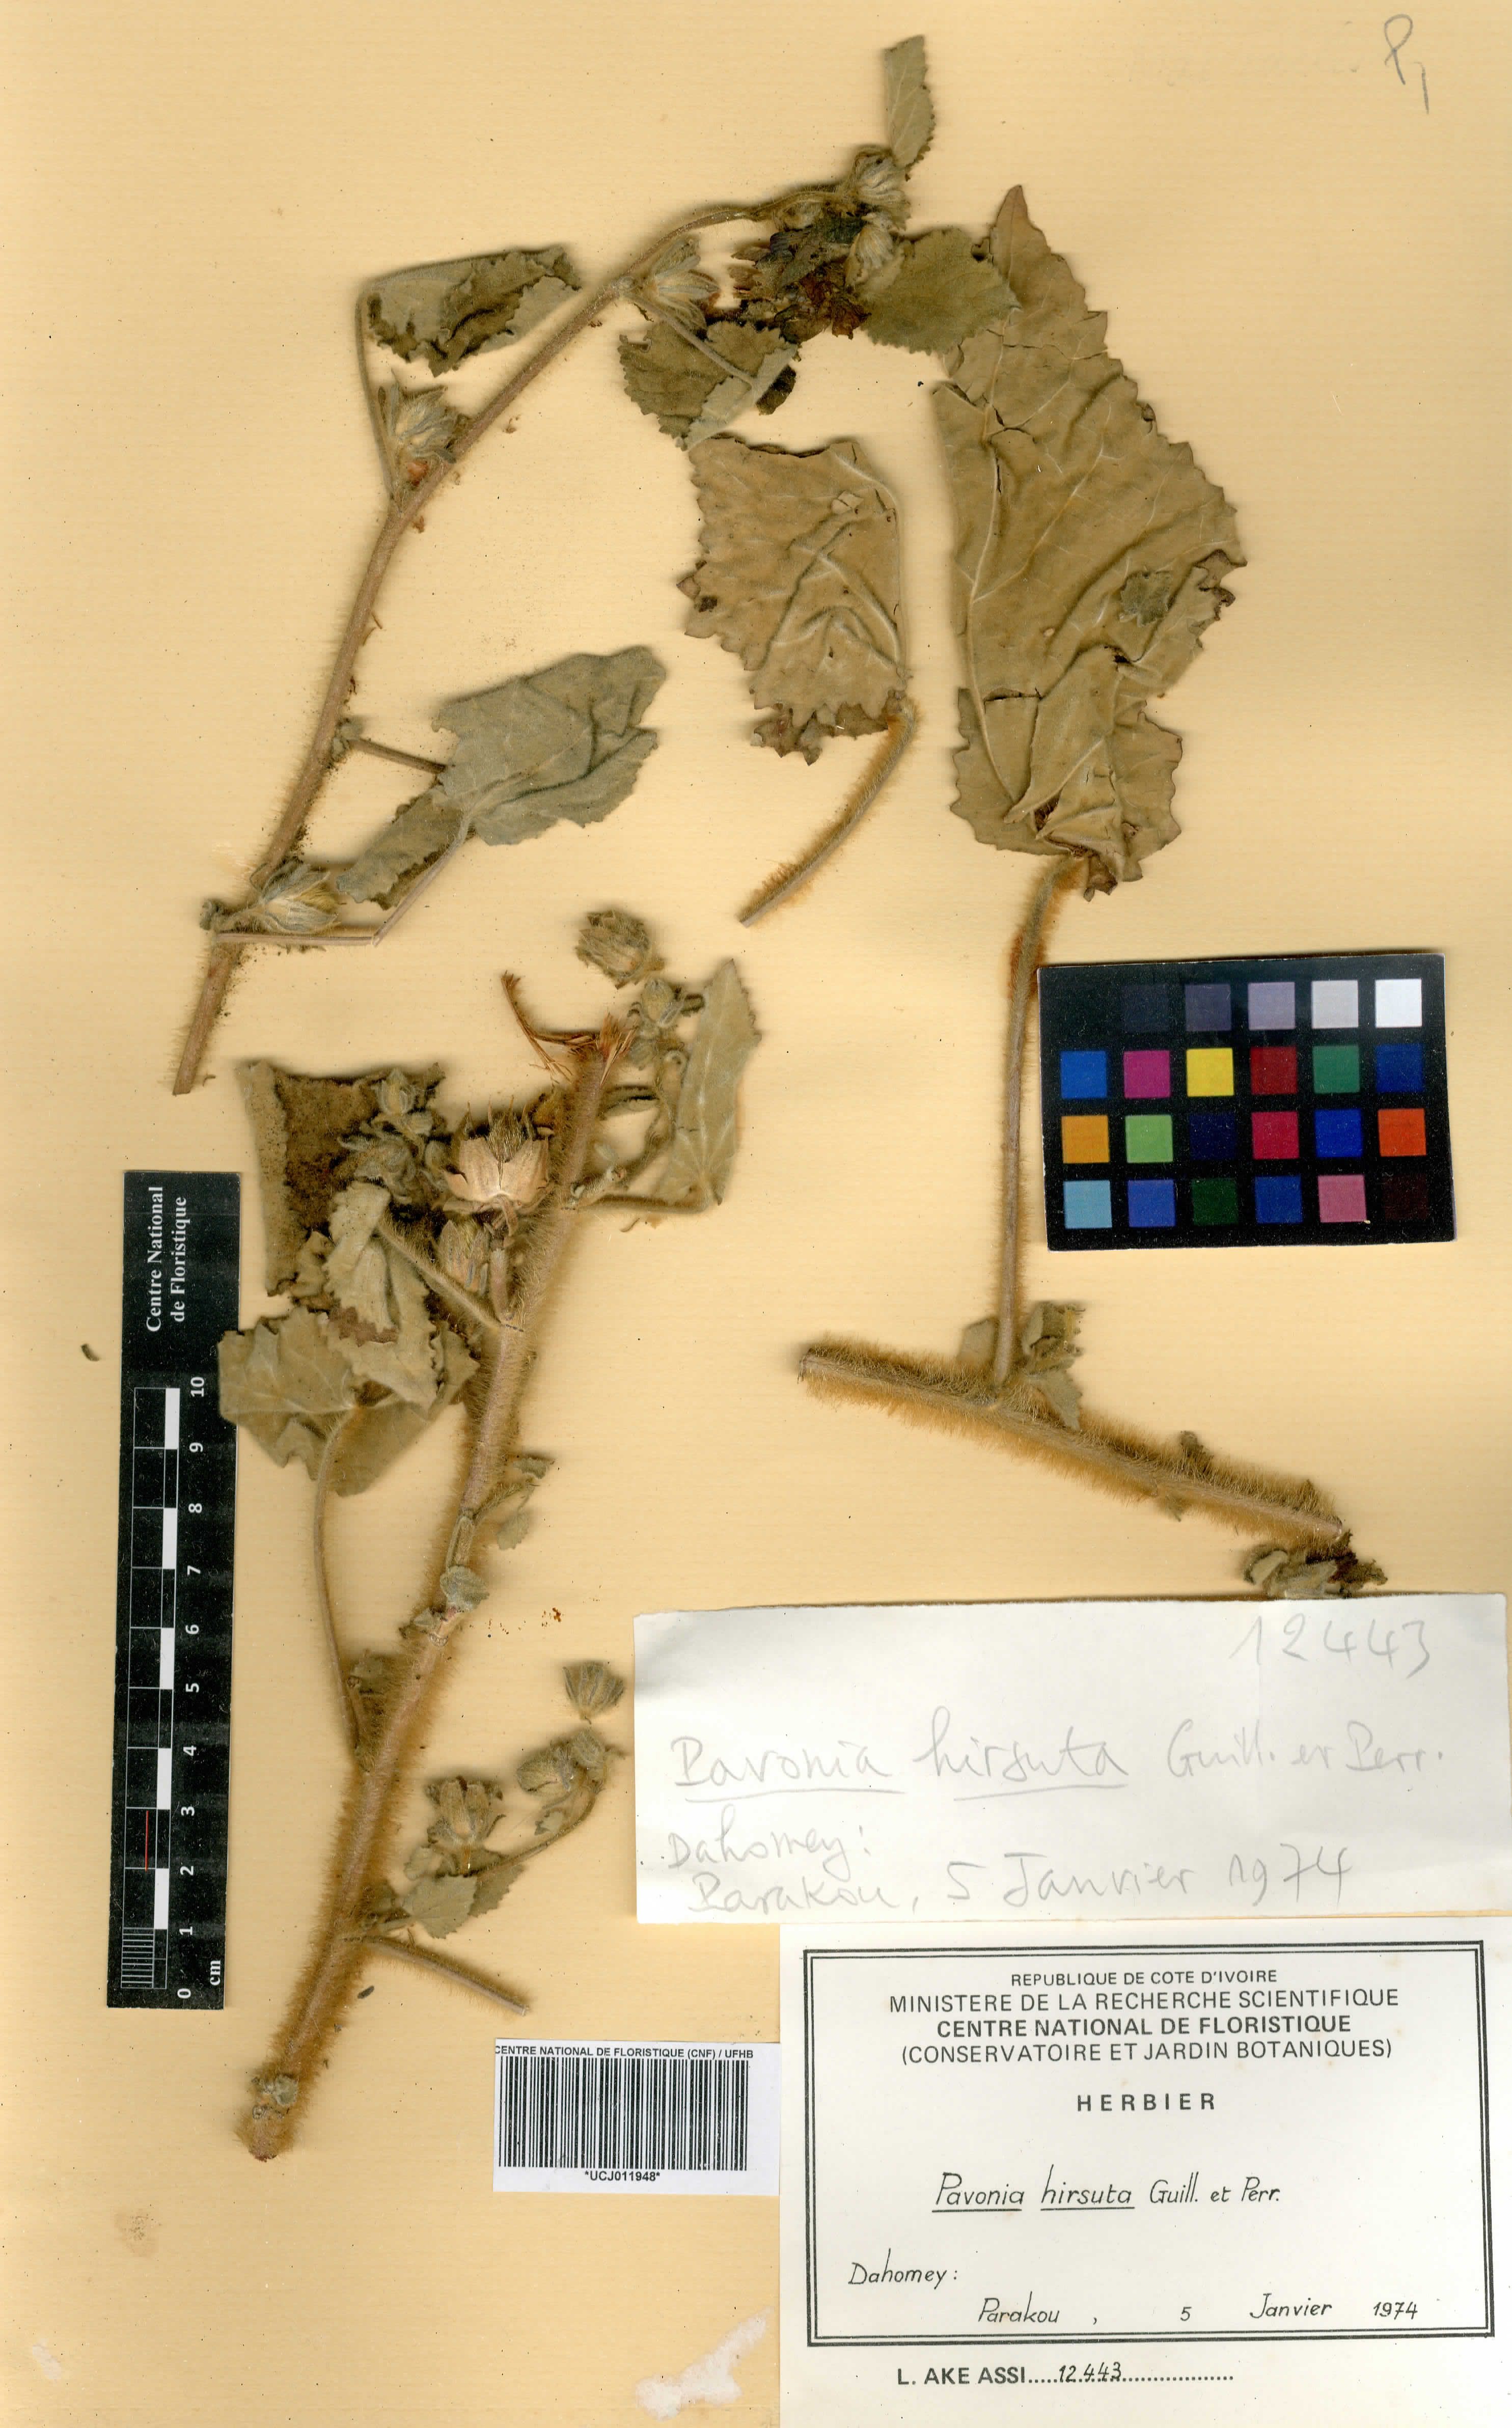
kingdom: Plantae
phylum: Tracheophyta
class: Magnoliopsida
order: Malvales
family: Malvaceae
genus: Pavonia
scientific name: Pavonia senegalensis
